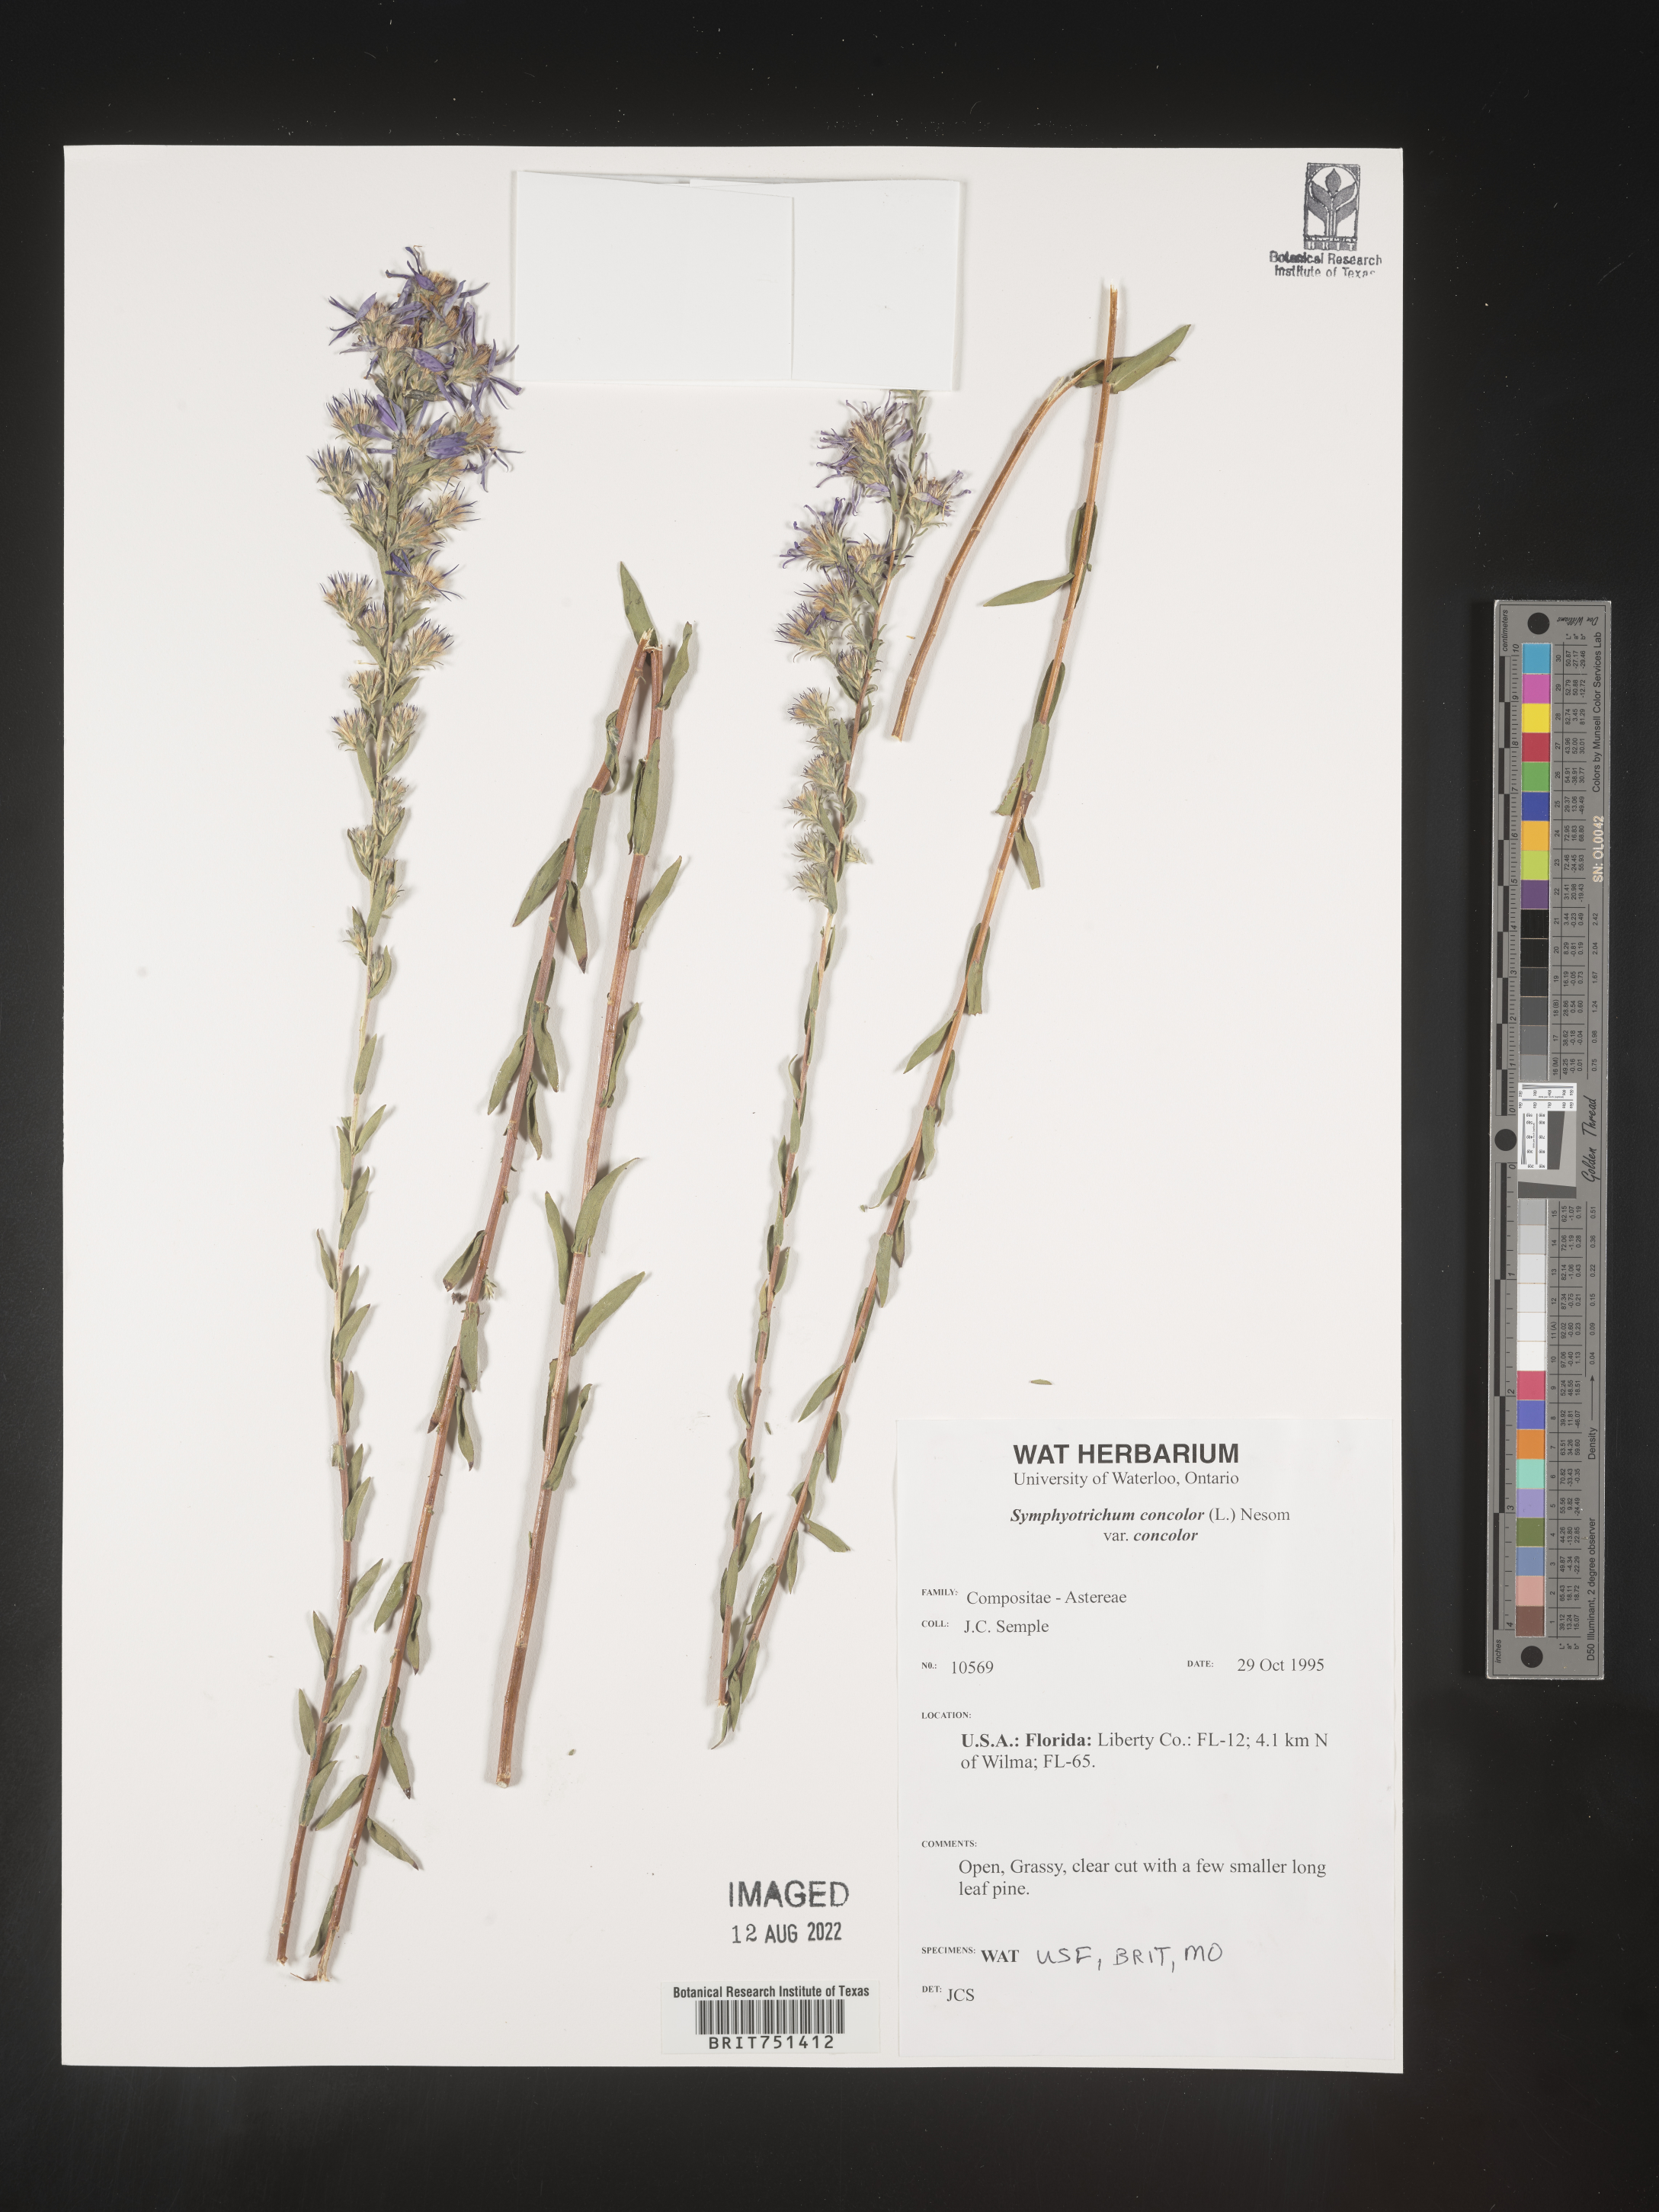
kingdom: Plantae
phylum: Tracheophyta
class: Magnoliopsida
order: Asterales
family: Asteraceae
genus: Symphyotrichum
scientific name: Symphyotrichum concolor
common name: Eastern silver aster
